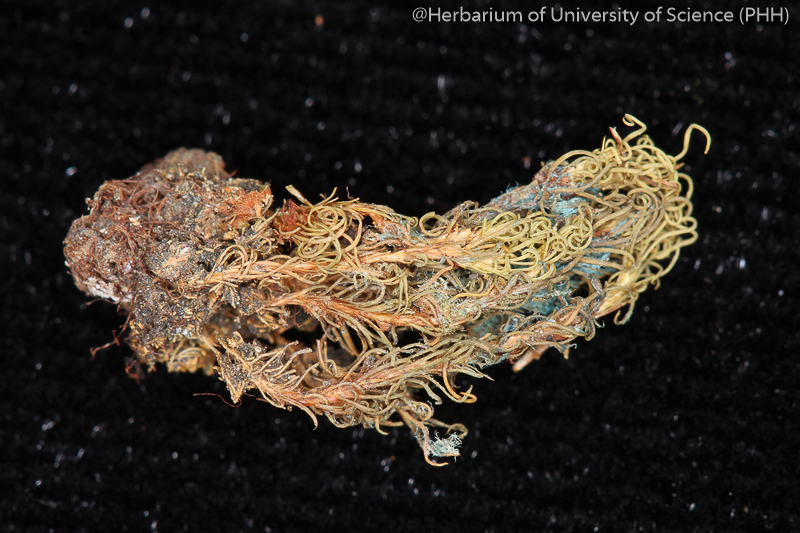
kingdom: Plantae
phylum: Bryophyta
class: Bryopsida
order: Pottiales
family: Pottiaceae
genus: Pachyneuropsis
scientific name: Pachyneuropsis perinvoluta
